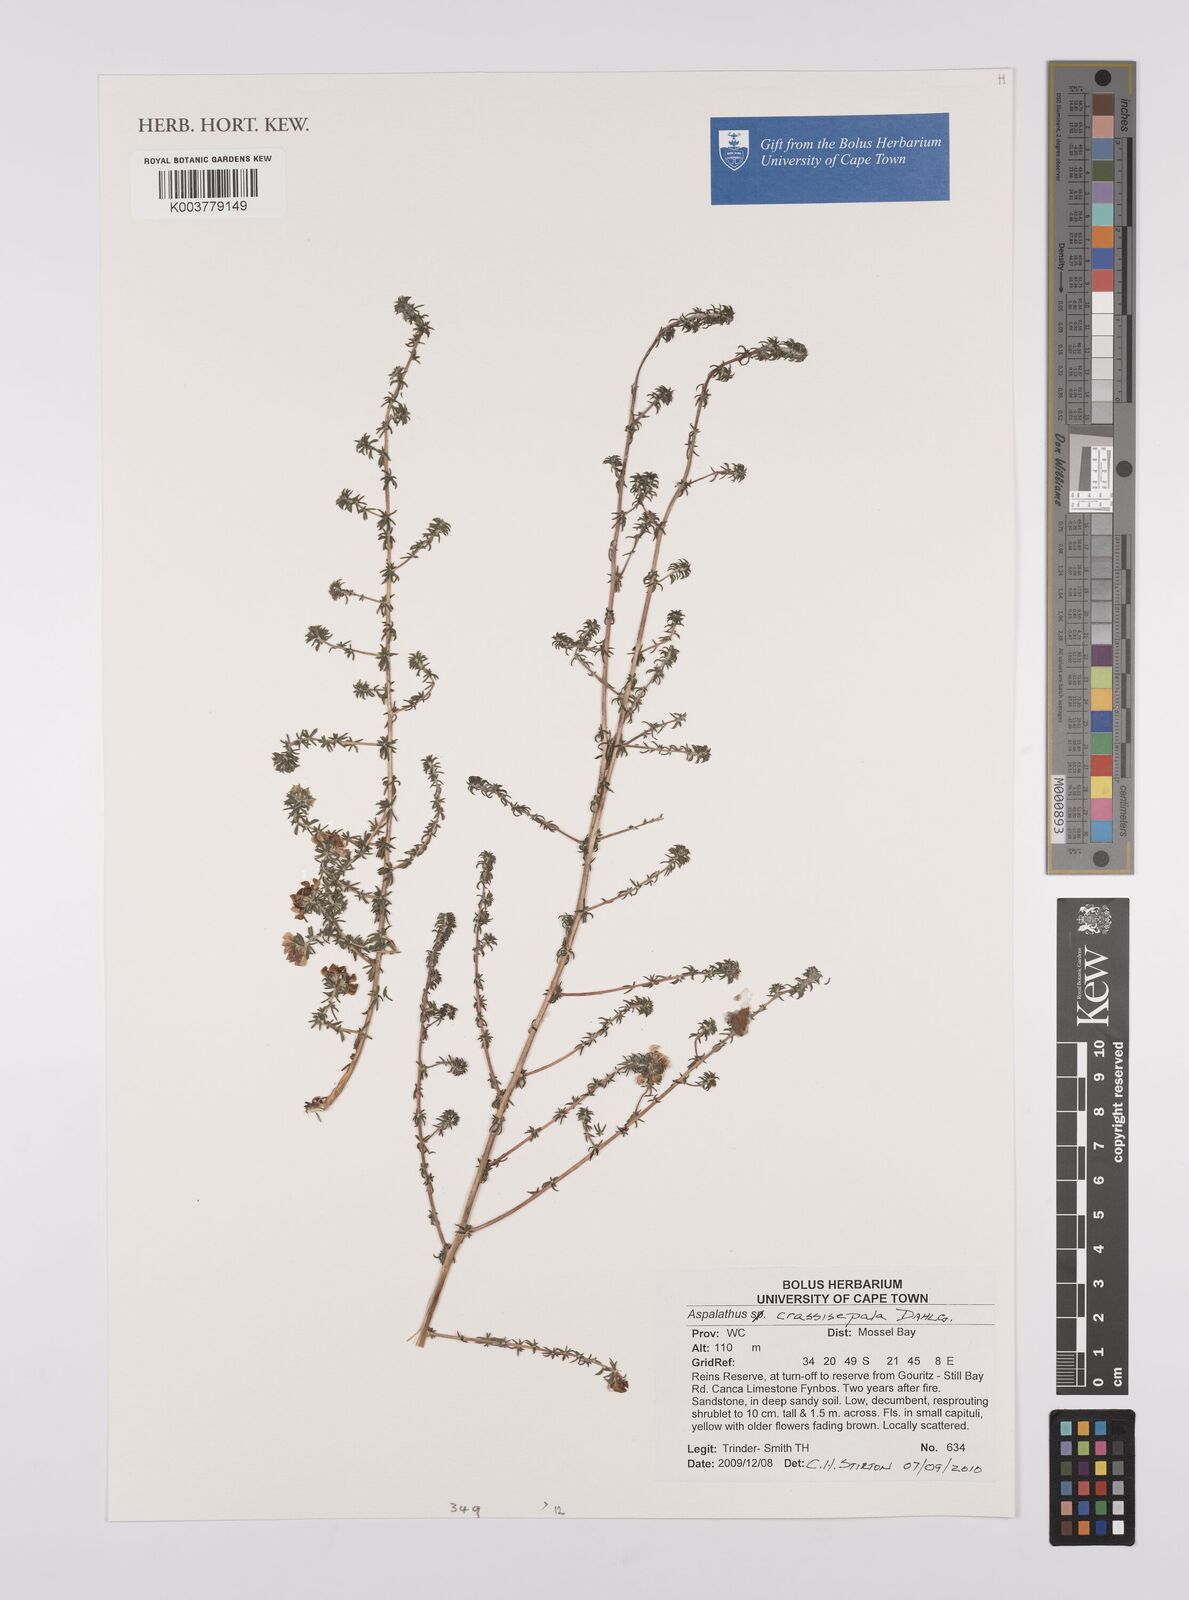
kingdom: Plantae
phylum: Tracheophyta
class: Magnoliopsida
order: Fabales
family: Fabaceae
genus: Aspalathus
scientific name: Aspalathus crassisepala
